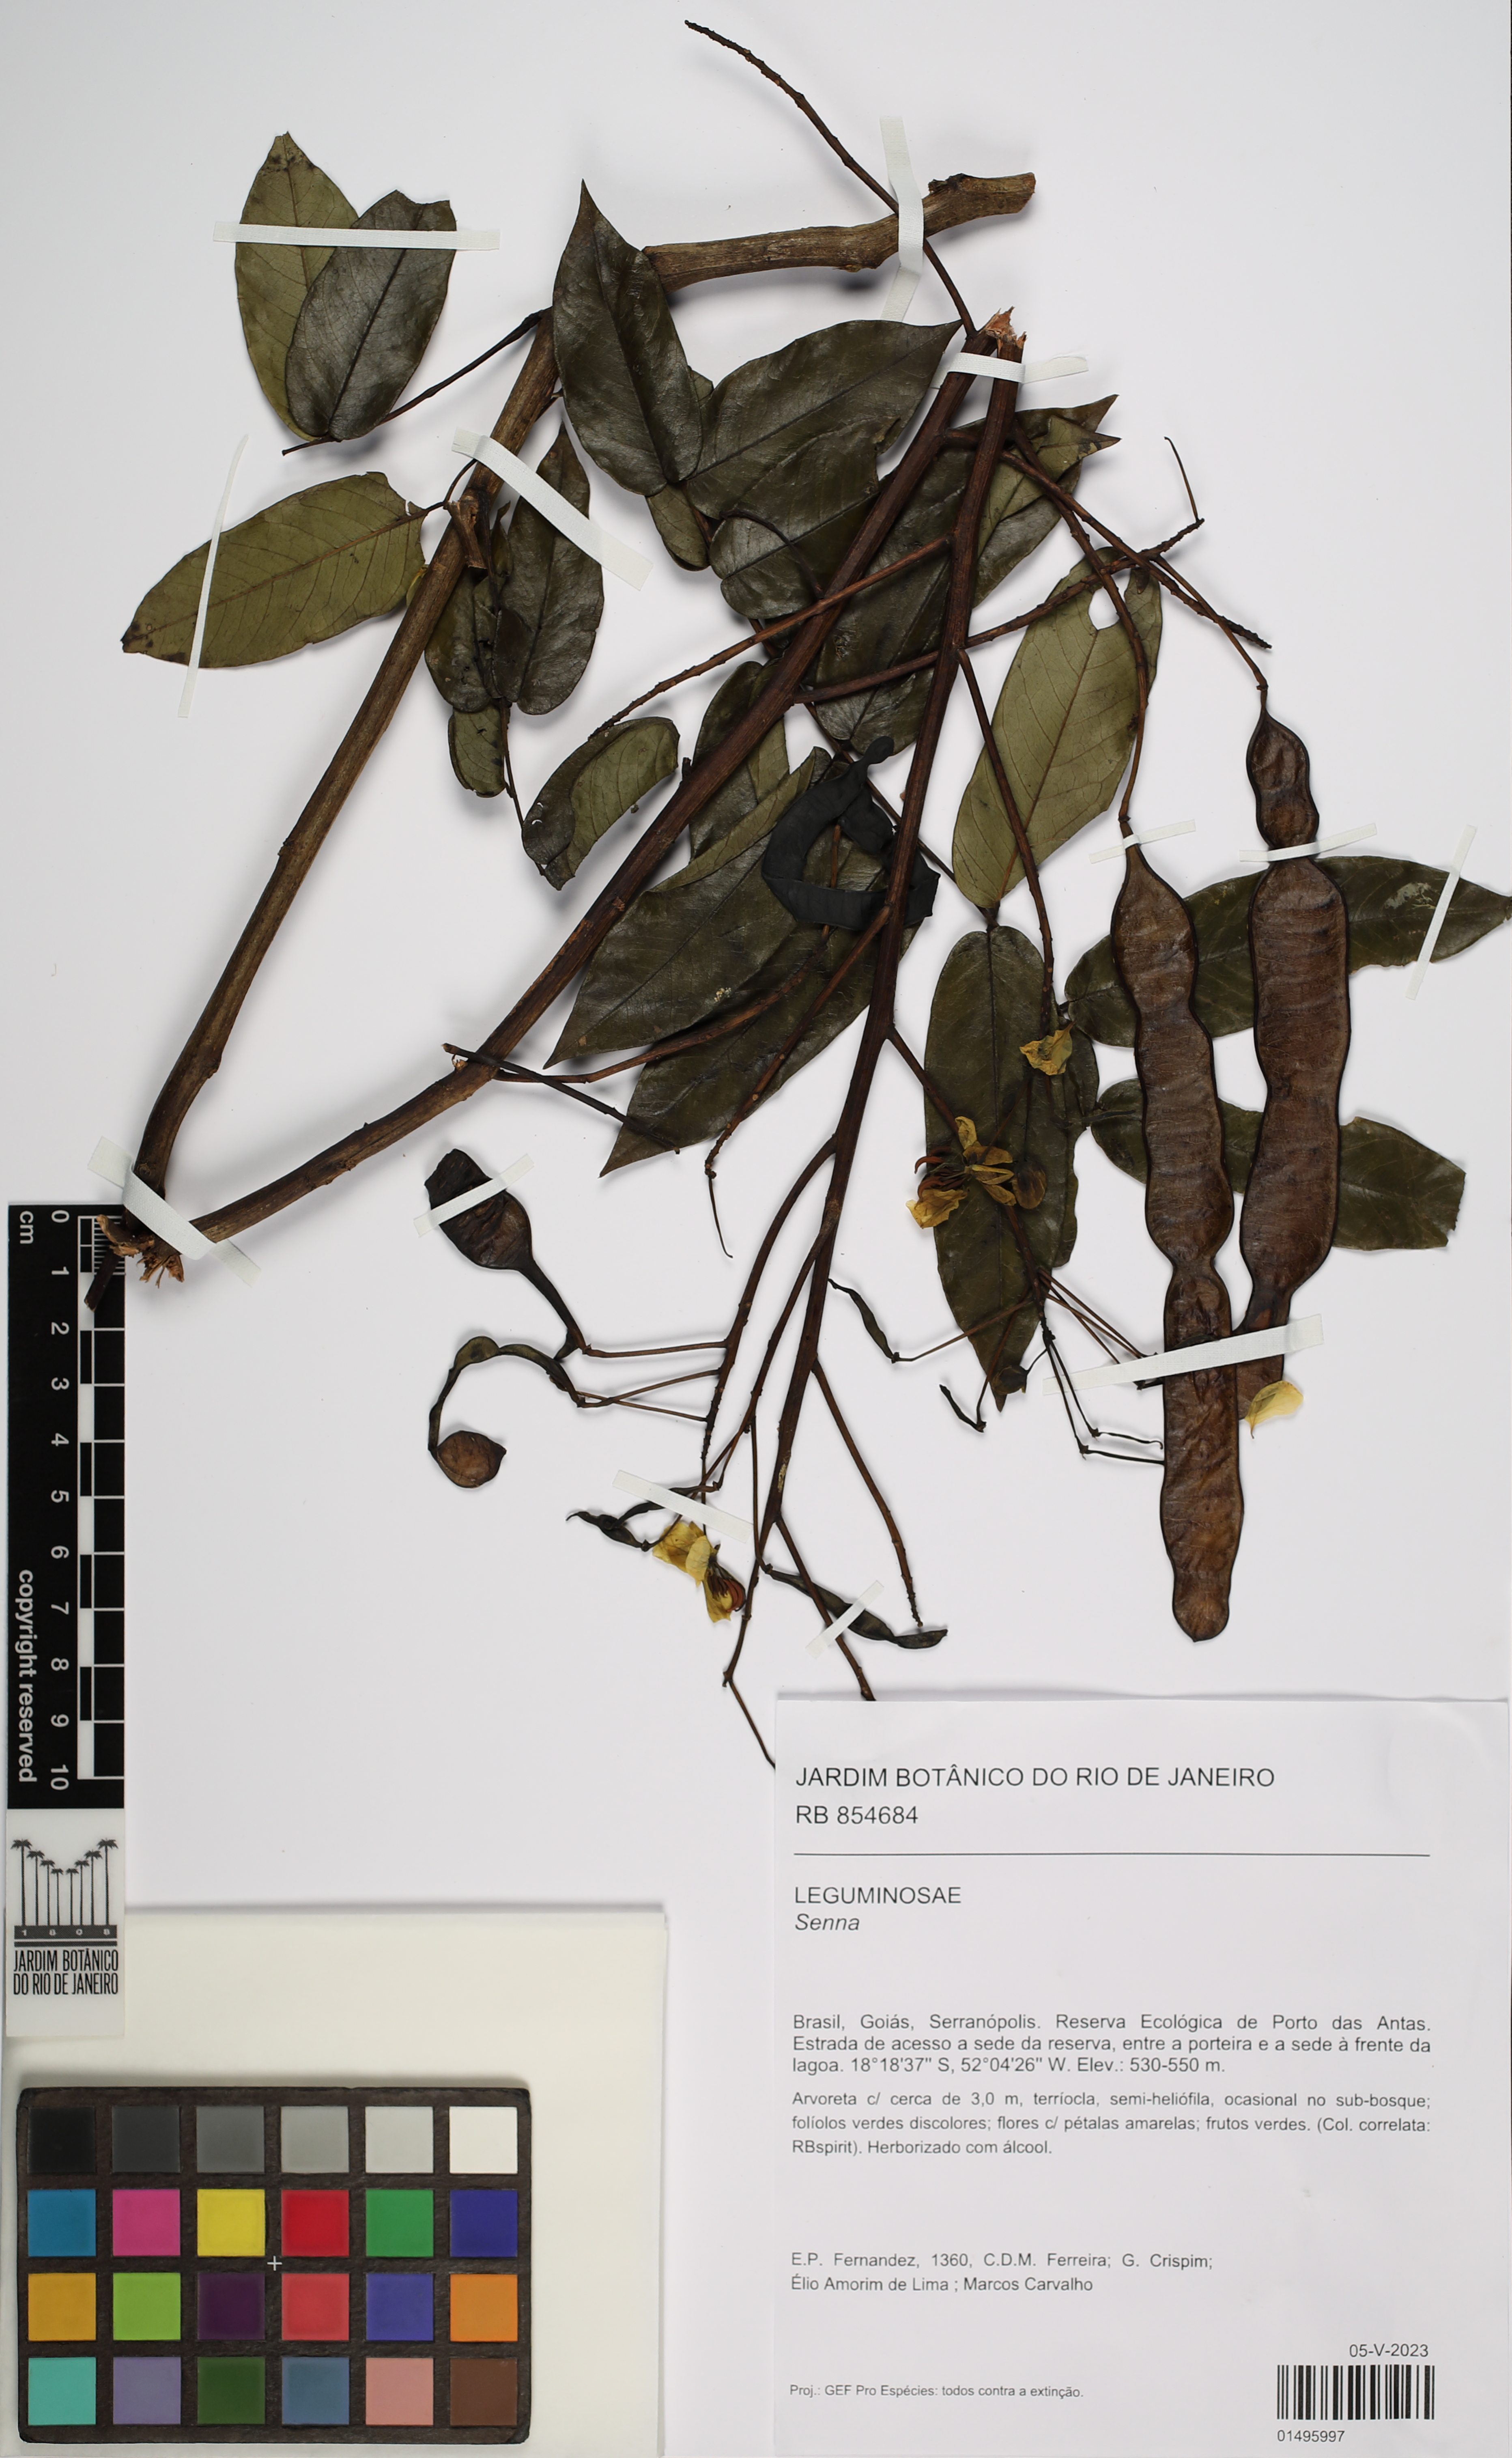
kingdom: Plantae
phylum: Tracheophyta
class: Magnoliopsida
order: Fabales
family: Fabaceae
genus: Senna
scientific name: Senna
